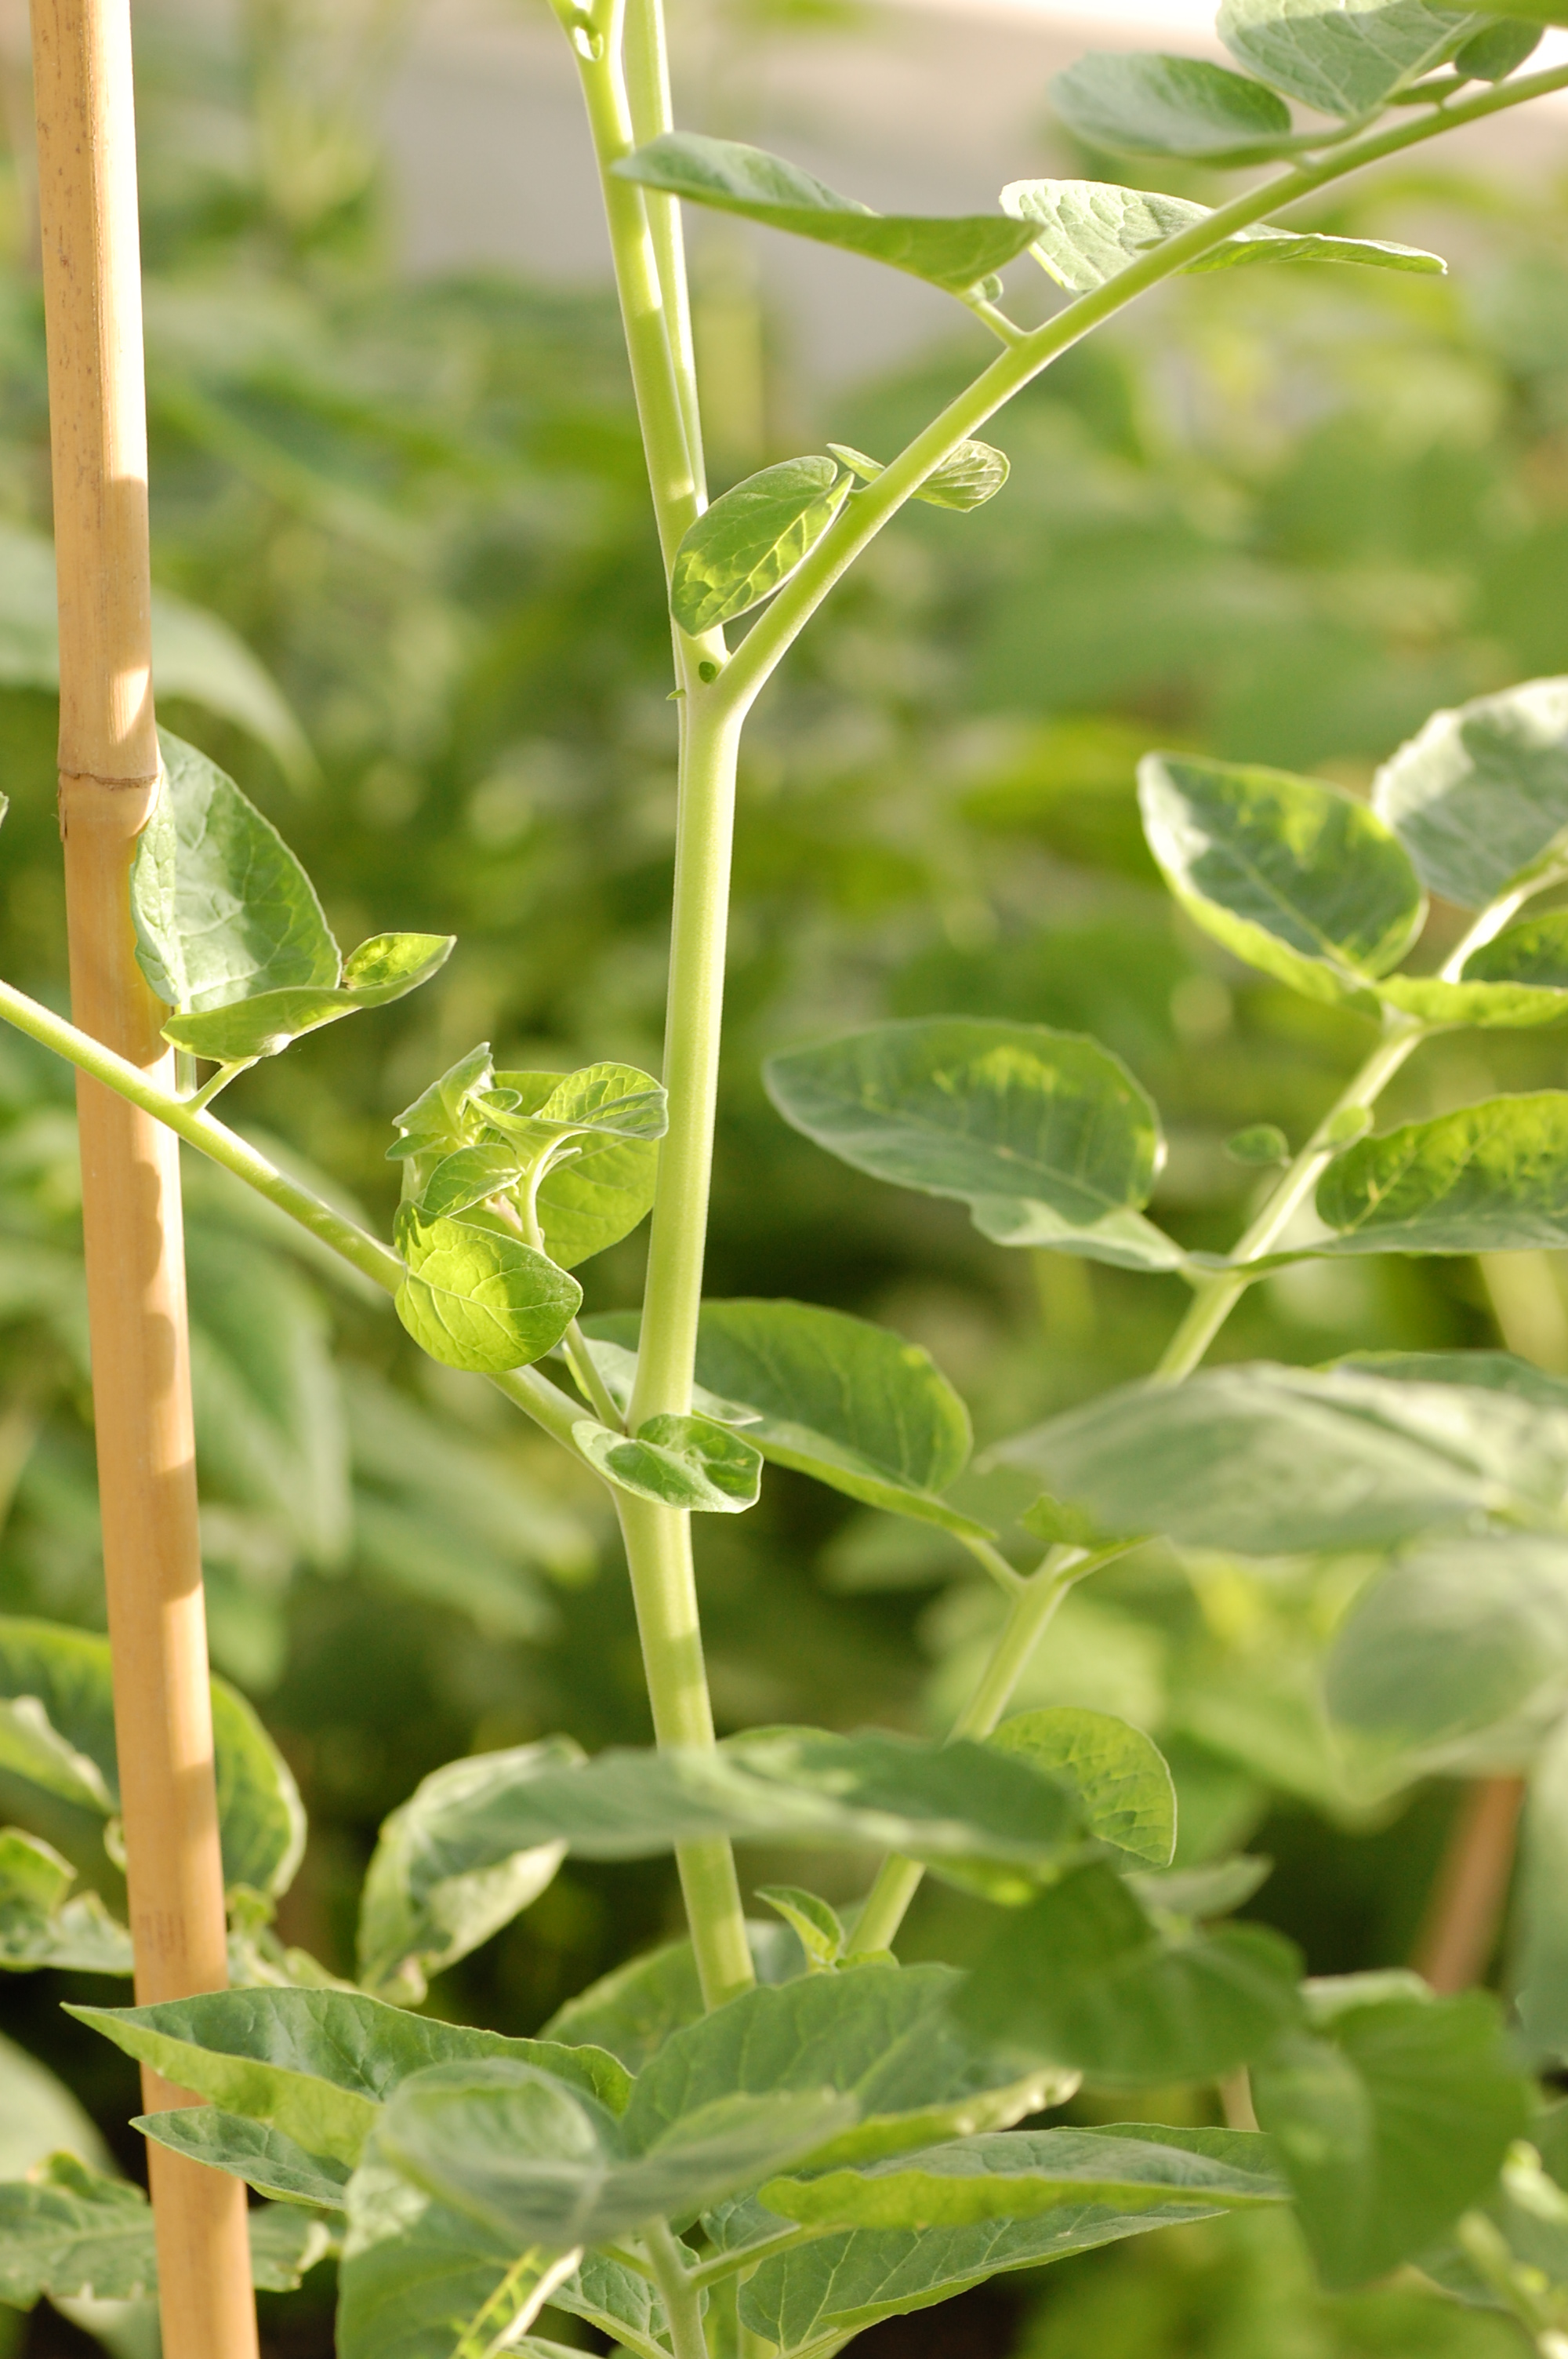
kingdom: Plantae
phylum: Tracheophyta
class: Magnoliopsida
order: Solanales
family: Solanaceae
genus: Solanum
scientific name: Solanum peruvianum
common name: Peruvian nightshade
